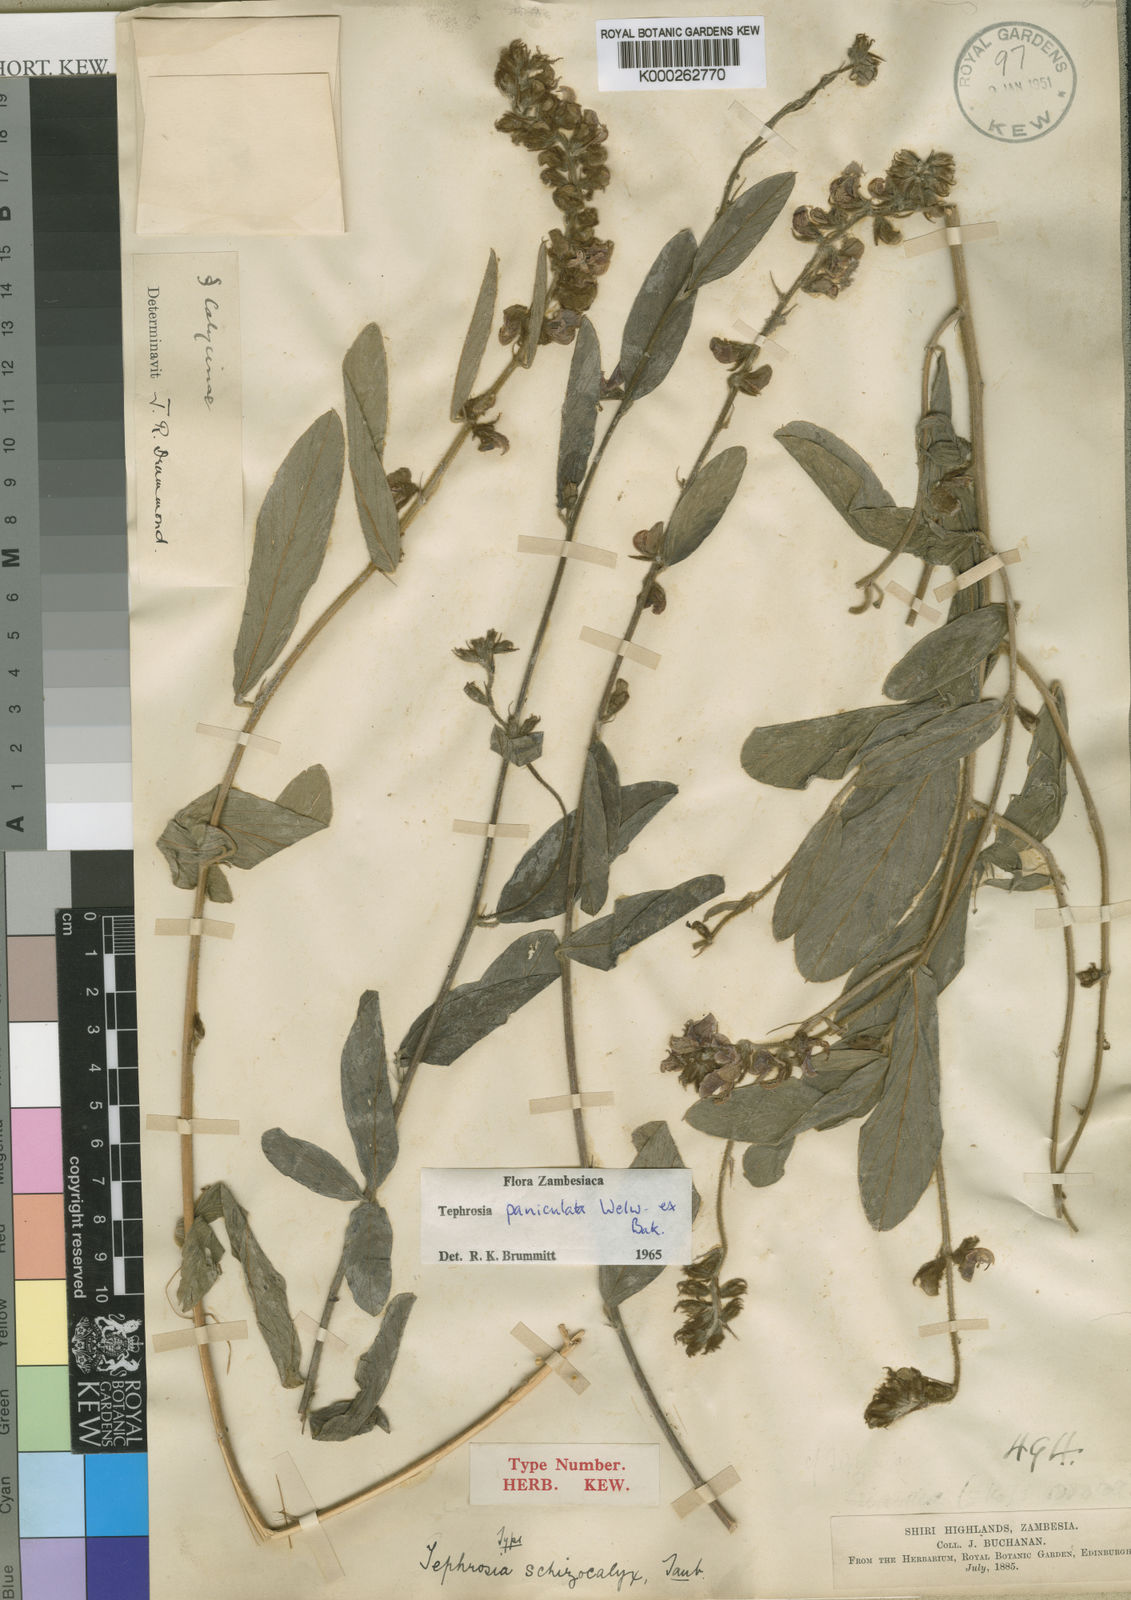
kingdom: Plantae
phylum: Tracheophyta
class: Magnoliopsida
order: Fabales
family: Fabaceae
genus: Tephrosia
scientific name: Tephrosia paniculata
